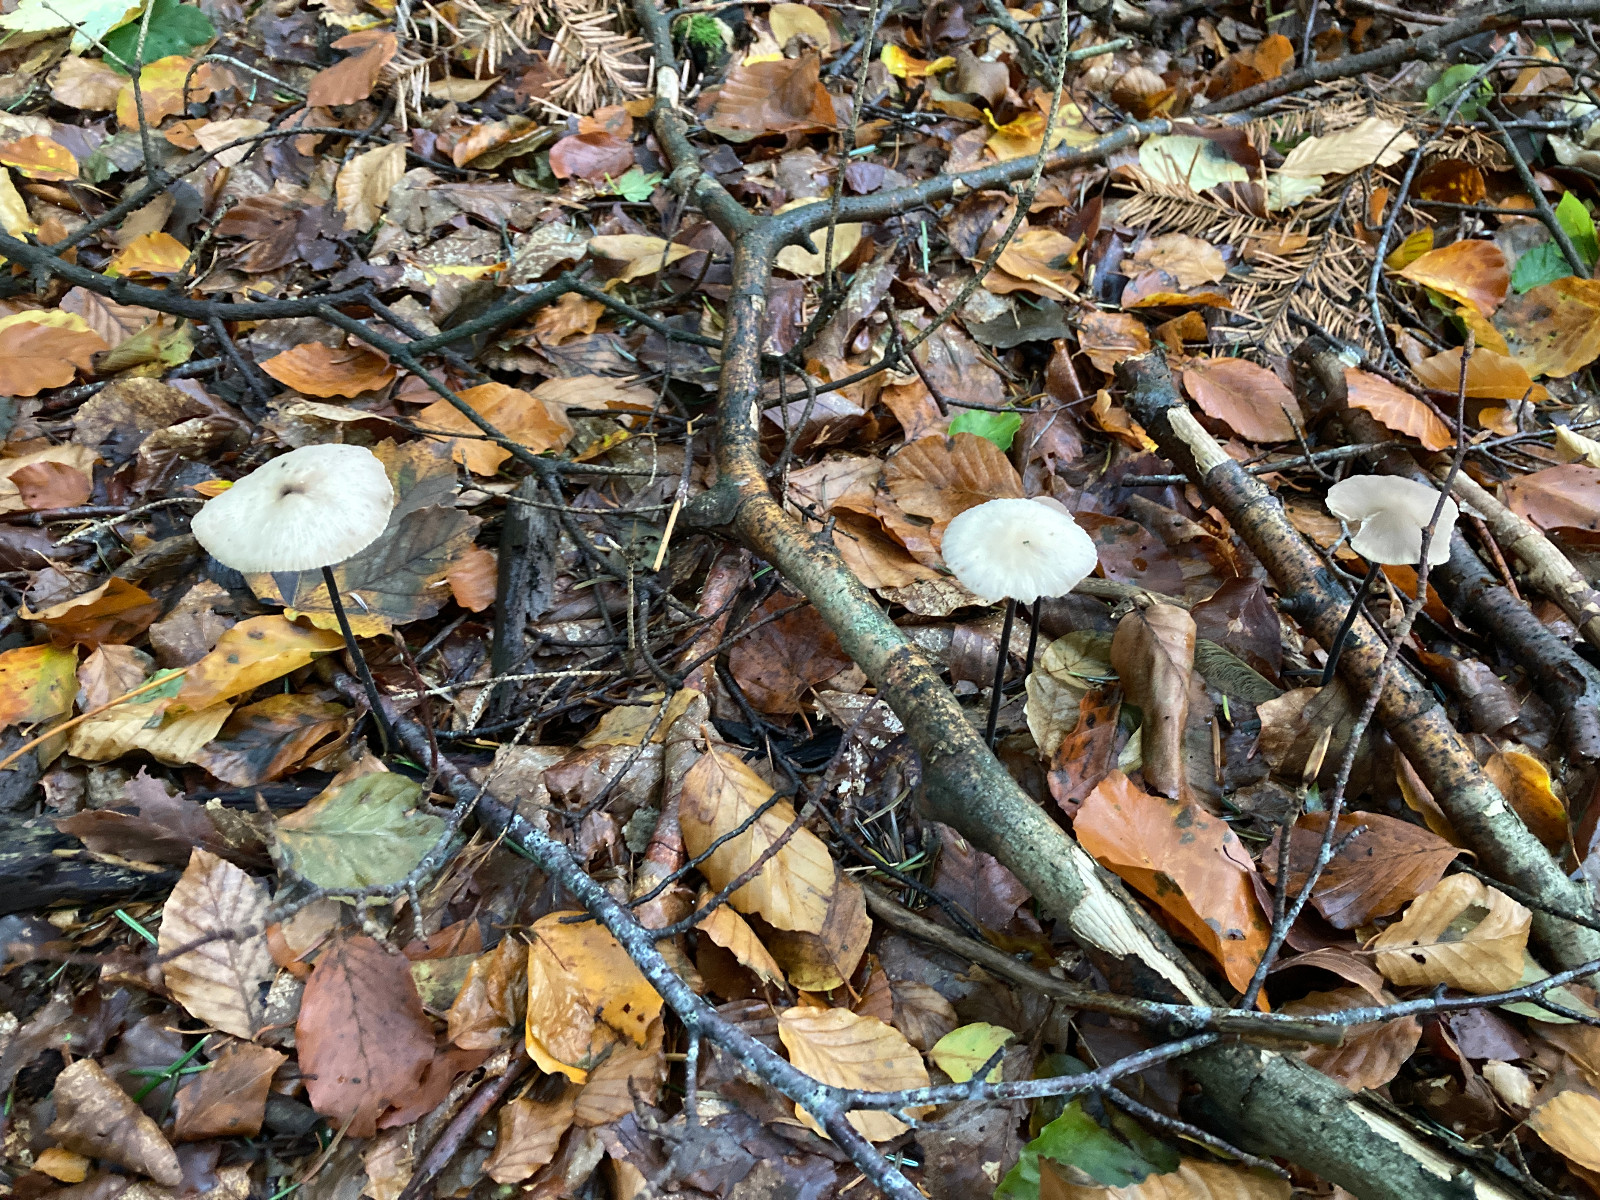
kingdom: Fungi
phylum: Basidiomycota
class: Agaricomycetes
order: Agaricales
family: Omphalotaceae
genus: Mycetinis
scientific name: Mycetinis alliaceus
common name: stor løghat
